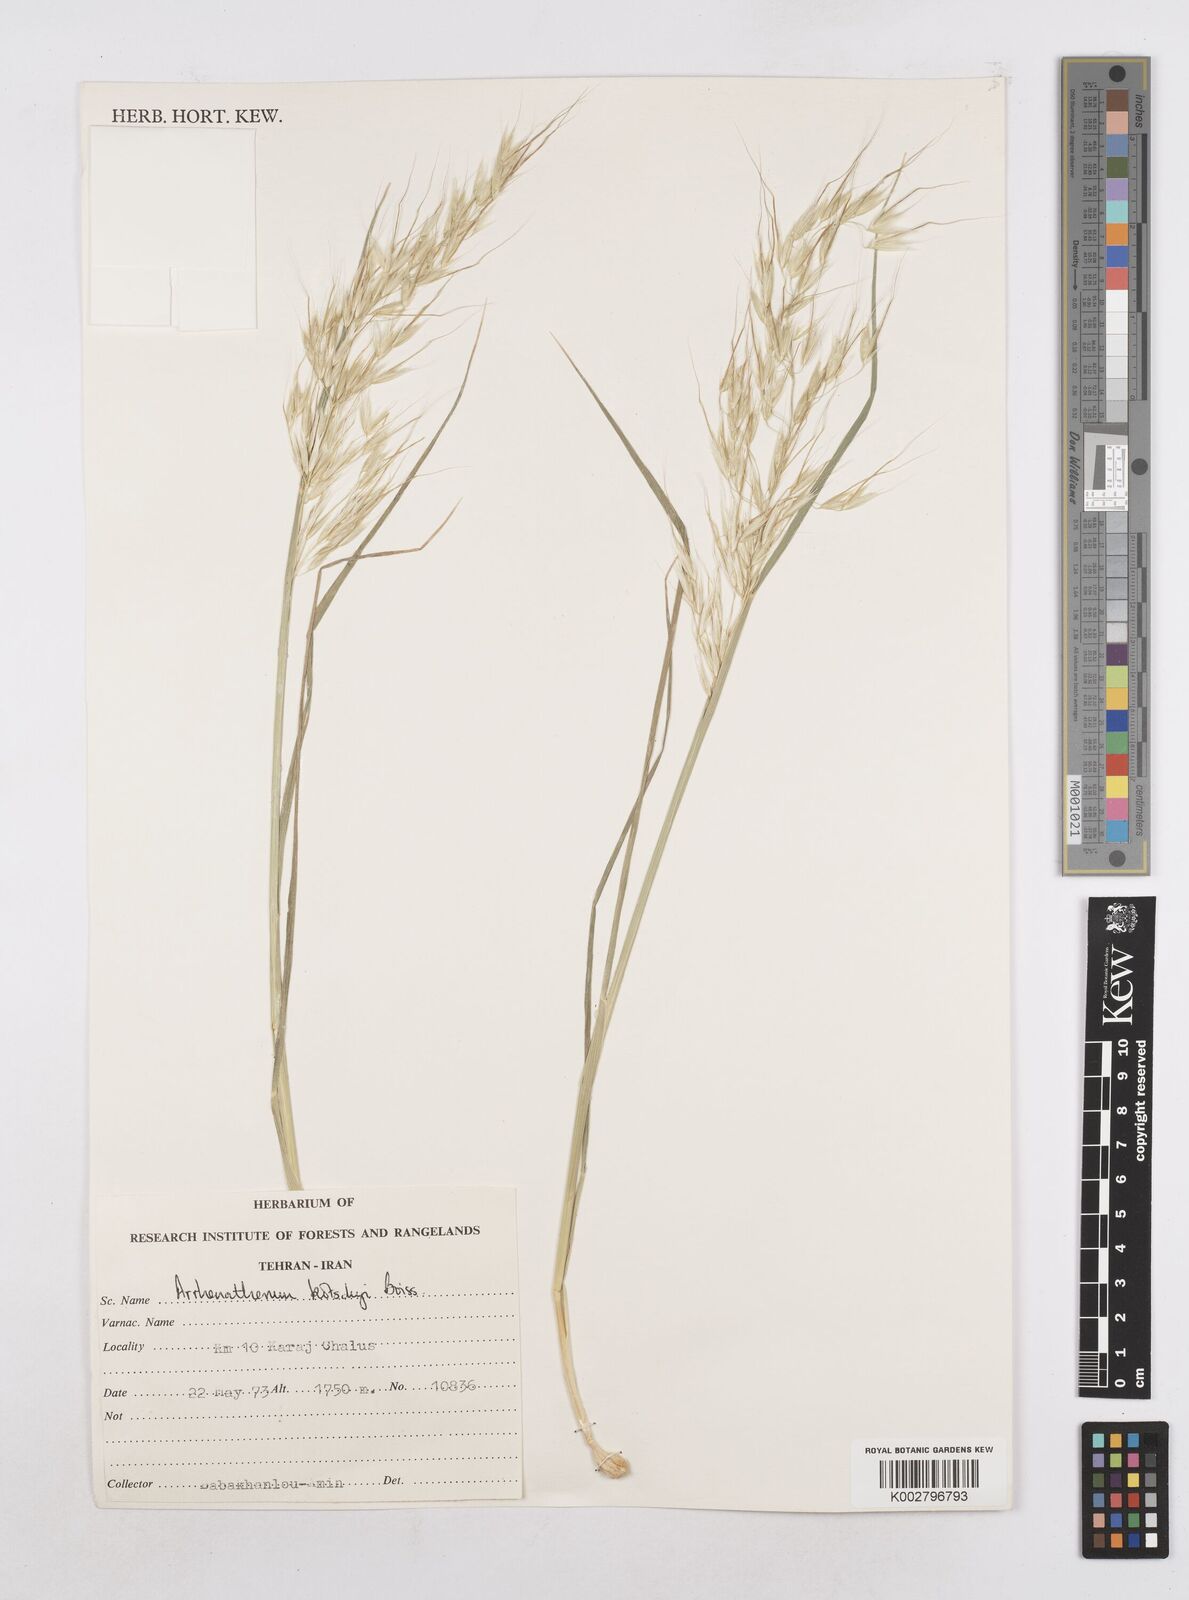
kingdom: Plantae
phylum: Tracheophyta
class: Liliopsida
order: Poales
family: Poaceae
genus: Arrhenatherum
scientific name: Arrhenatherum kotschyi
